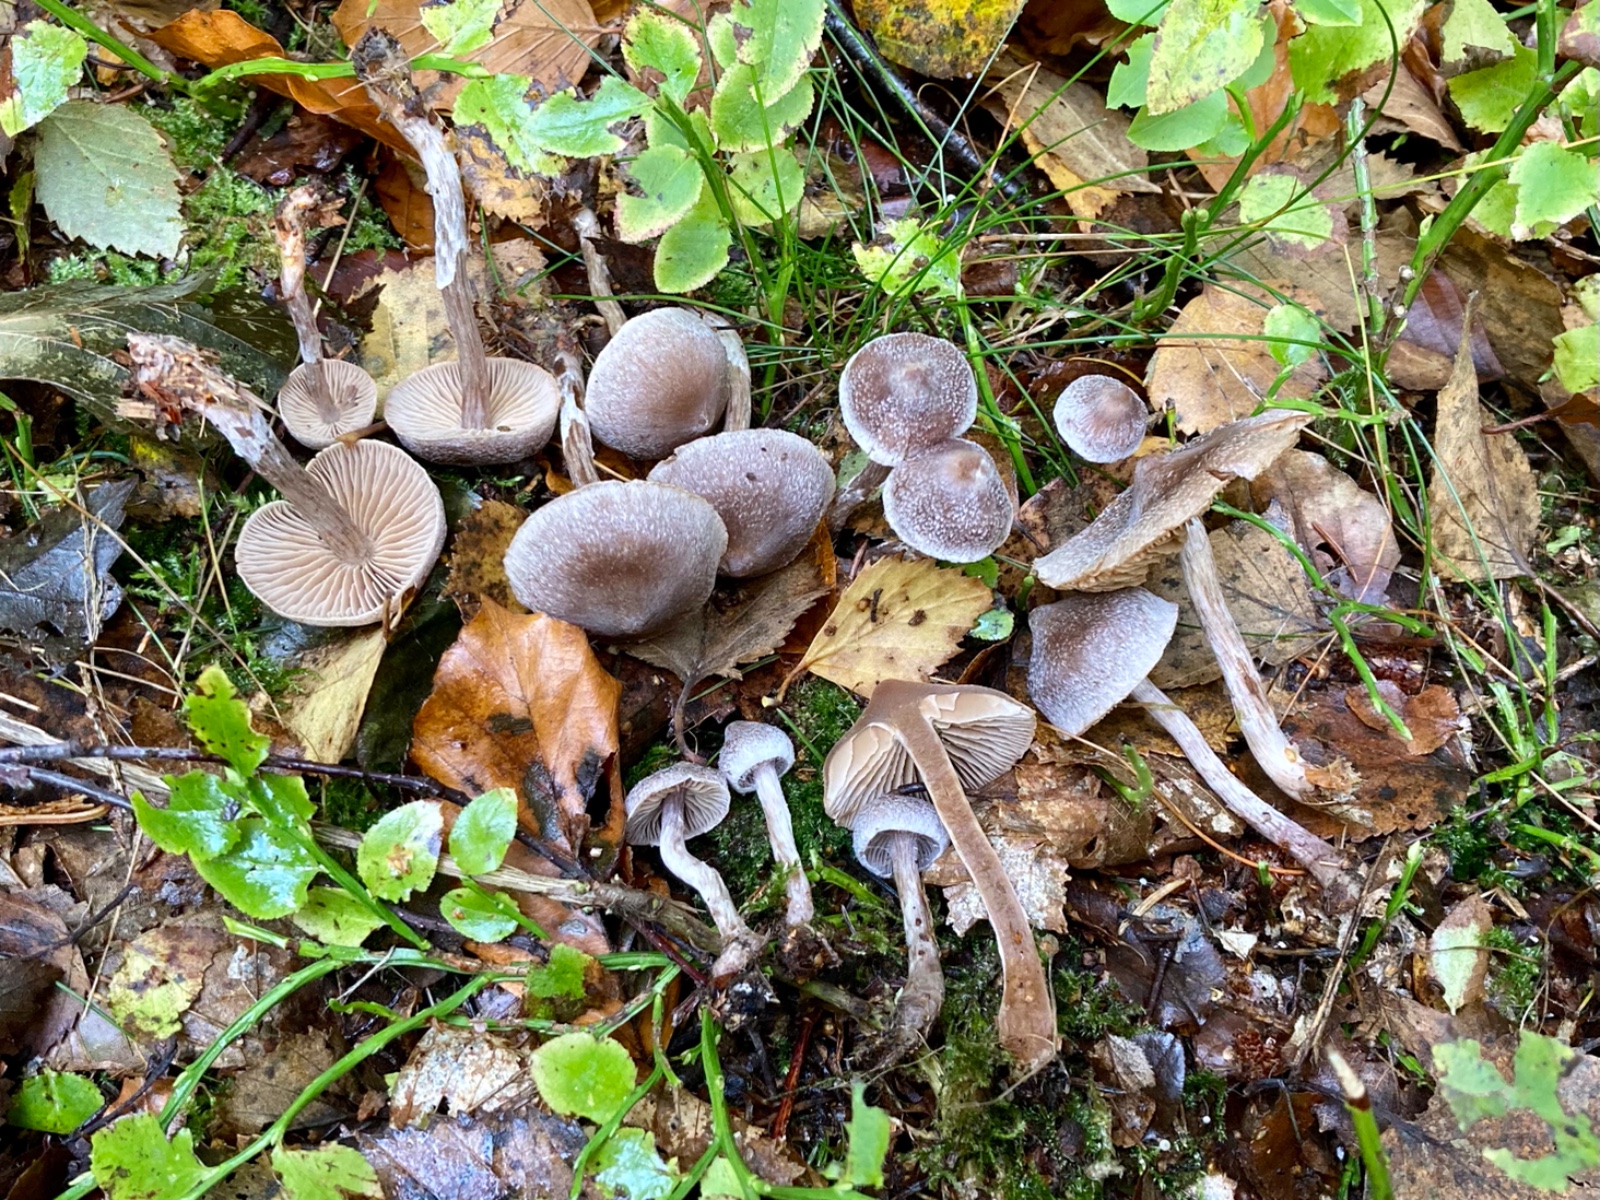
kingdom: Fungi
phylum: Basidiomycota
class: Agaricomycetes
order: Agaricales
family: Cortinariaceae
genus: Cortinarius
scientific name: Cortinarius hemitrichus
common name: hvidfnugget slørhat
